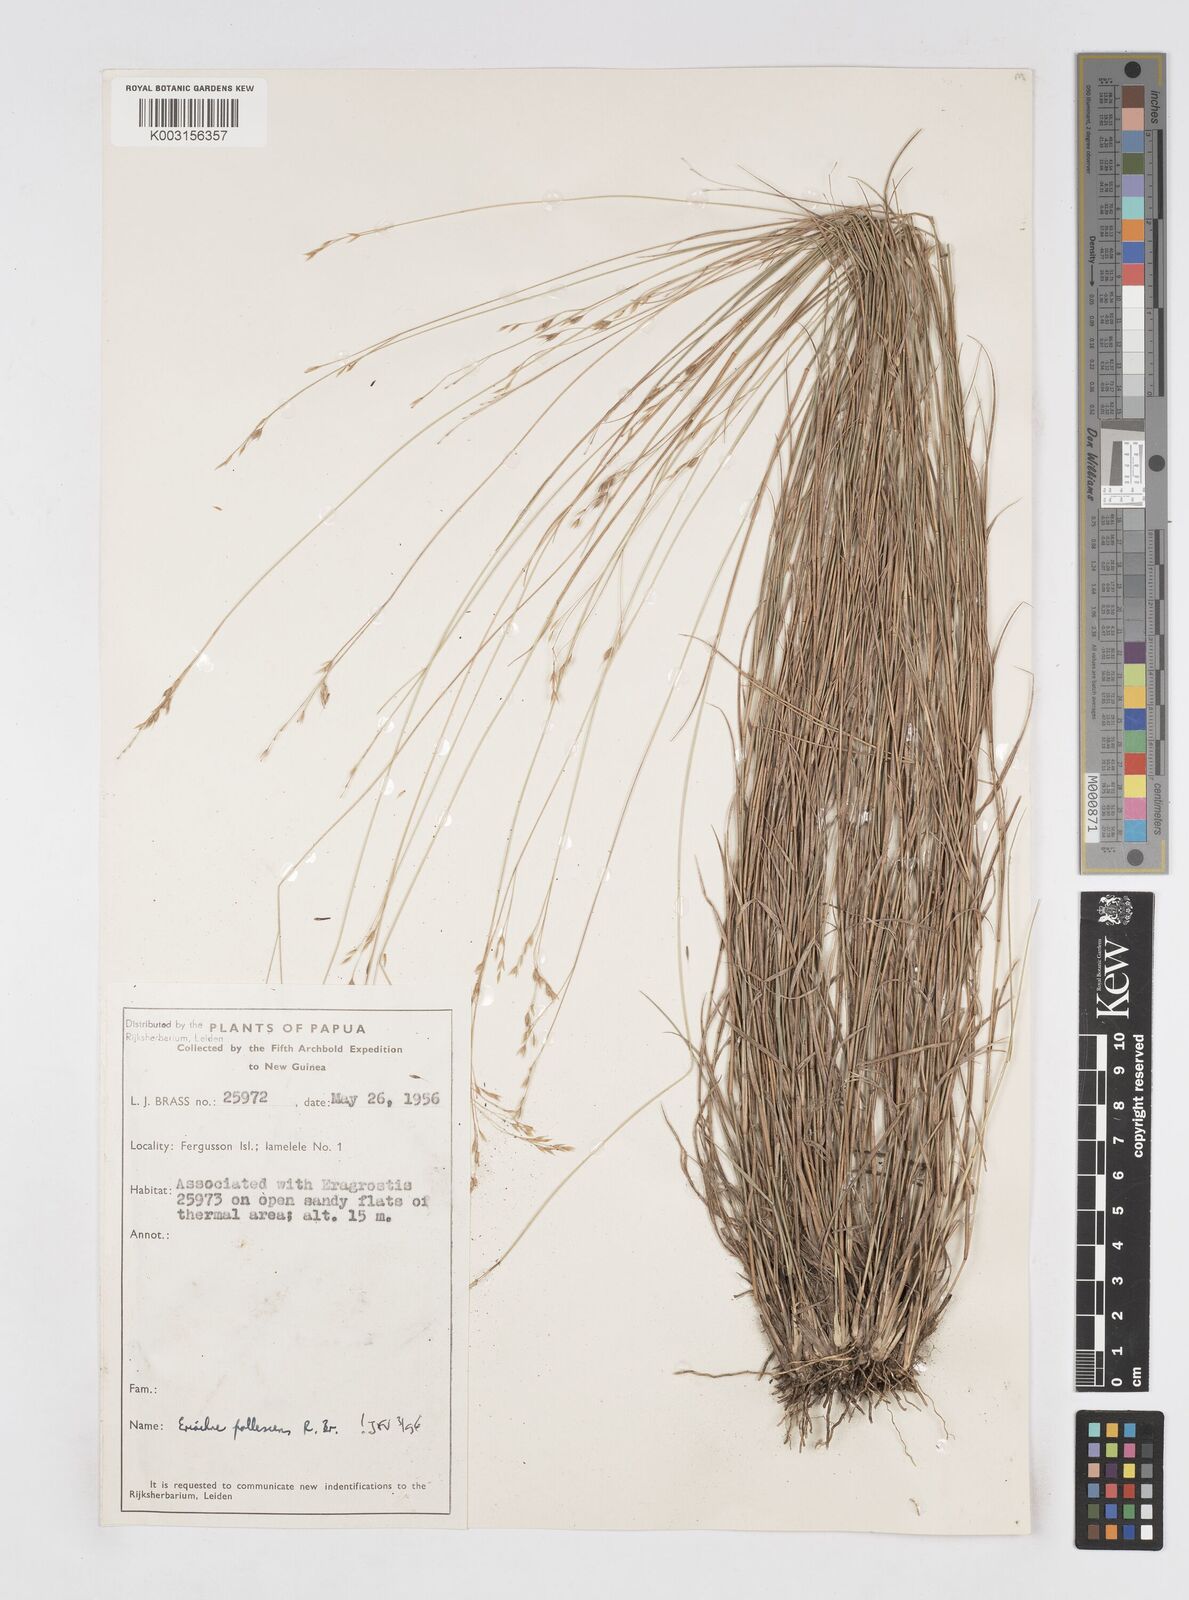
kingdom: Plantae
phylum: Tracheophyta
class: Liliopsida
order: Poales
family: Poaceae
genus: Eriachne
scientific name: Eriachne pallescens
